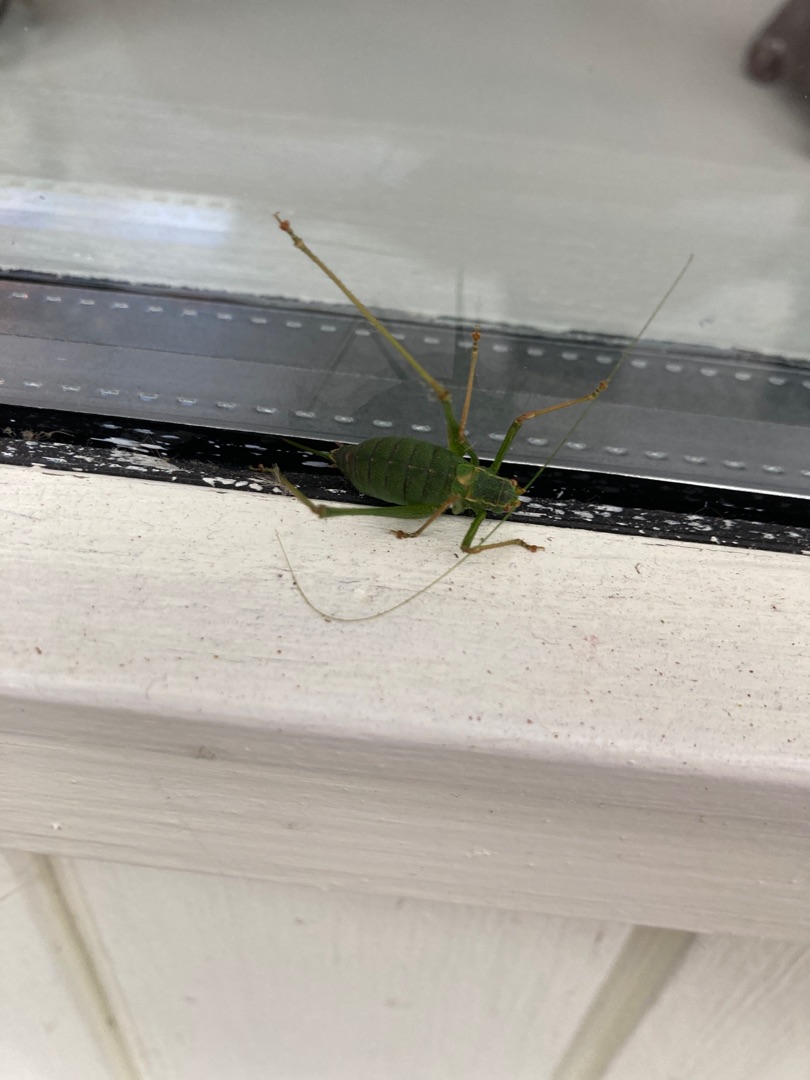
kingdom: Animalia
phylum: Arthropoda
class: Insecta
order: Orthoptera
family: Tettigoniidae
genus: Leptophyes
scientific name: Leptophyes punctatissima
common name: Krumknivgræshoppe
